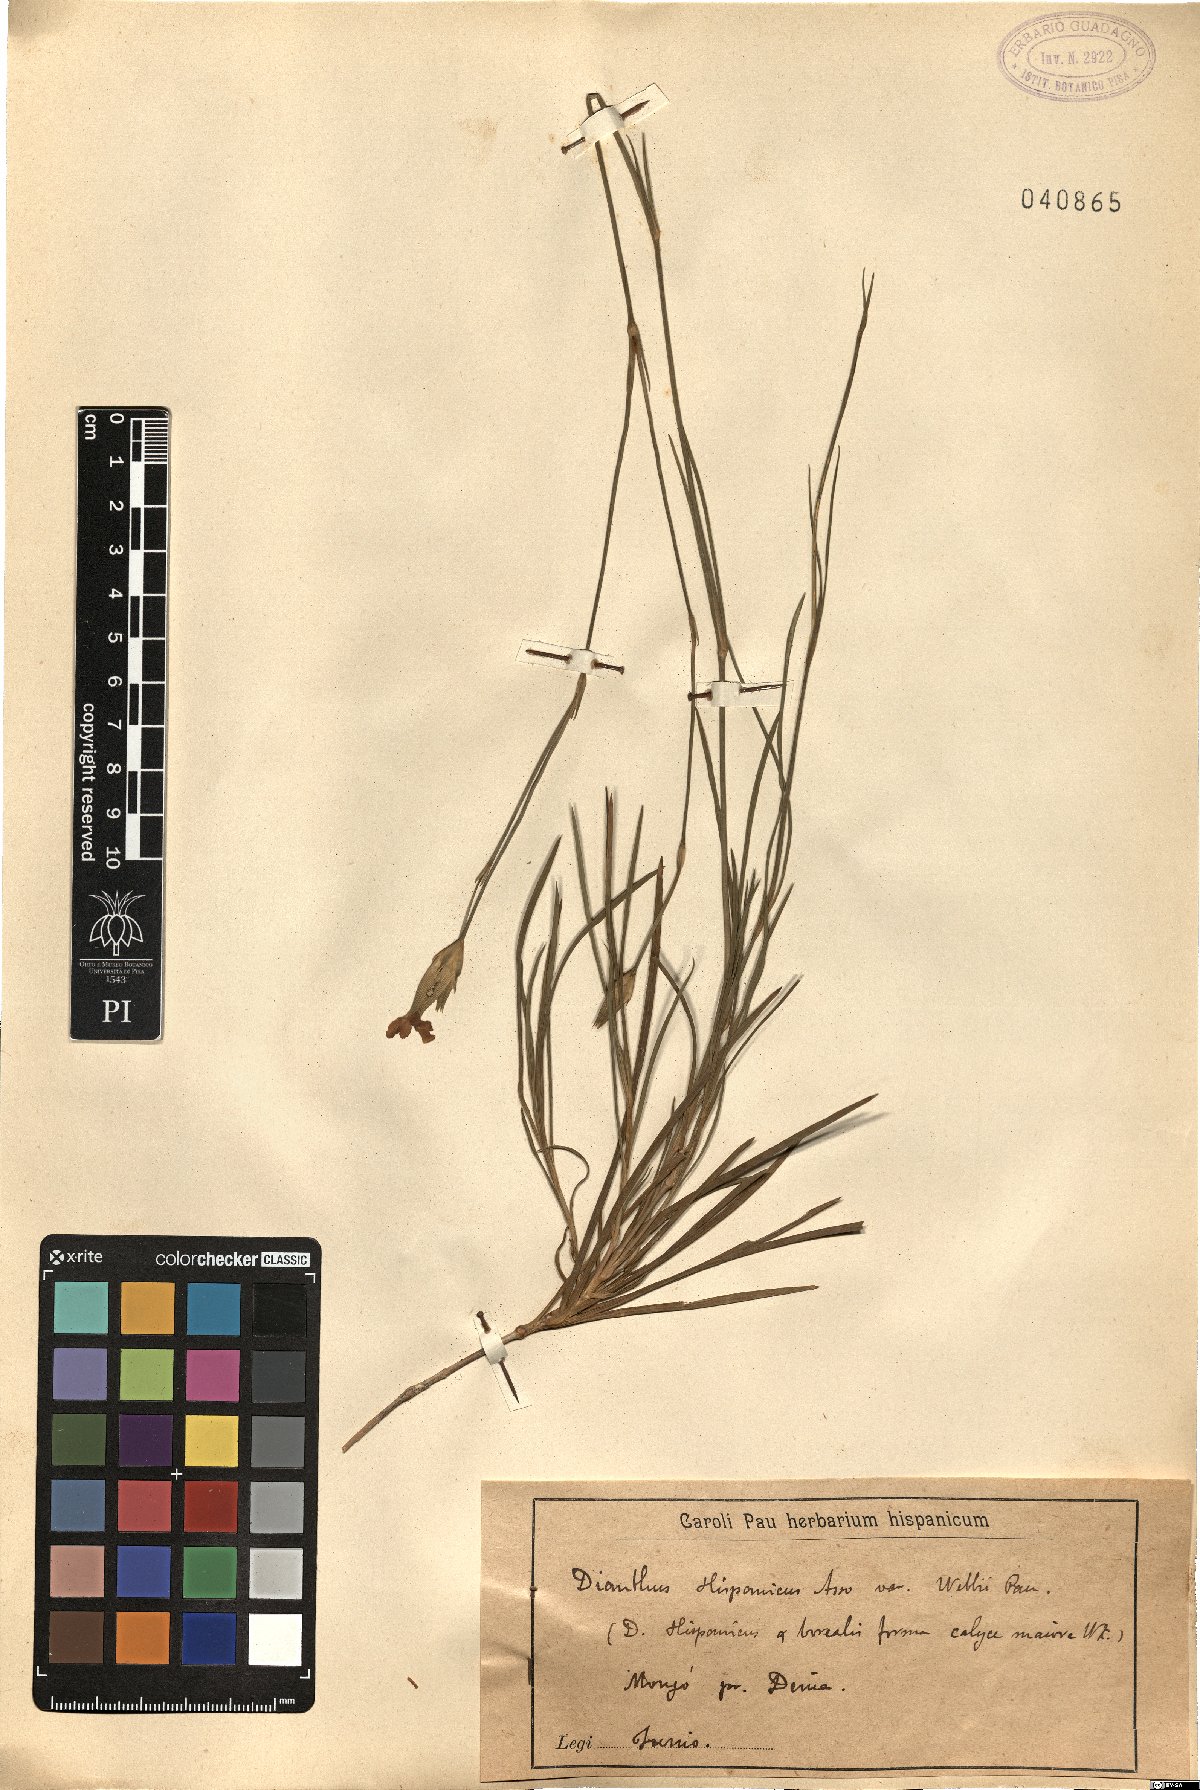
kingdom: Plantae
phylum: Tracheophyta
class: Magnoliopsida
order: Caryophyllales
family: Caryophyllaceae
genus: Dianthus
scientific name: Dianthus hispanicus
